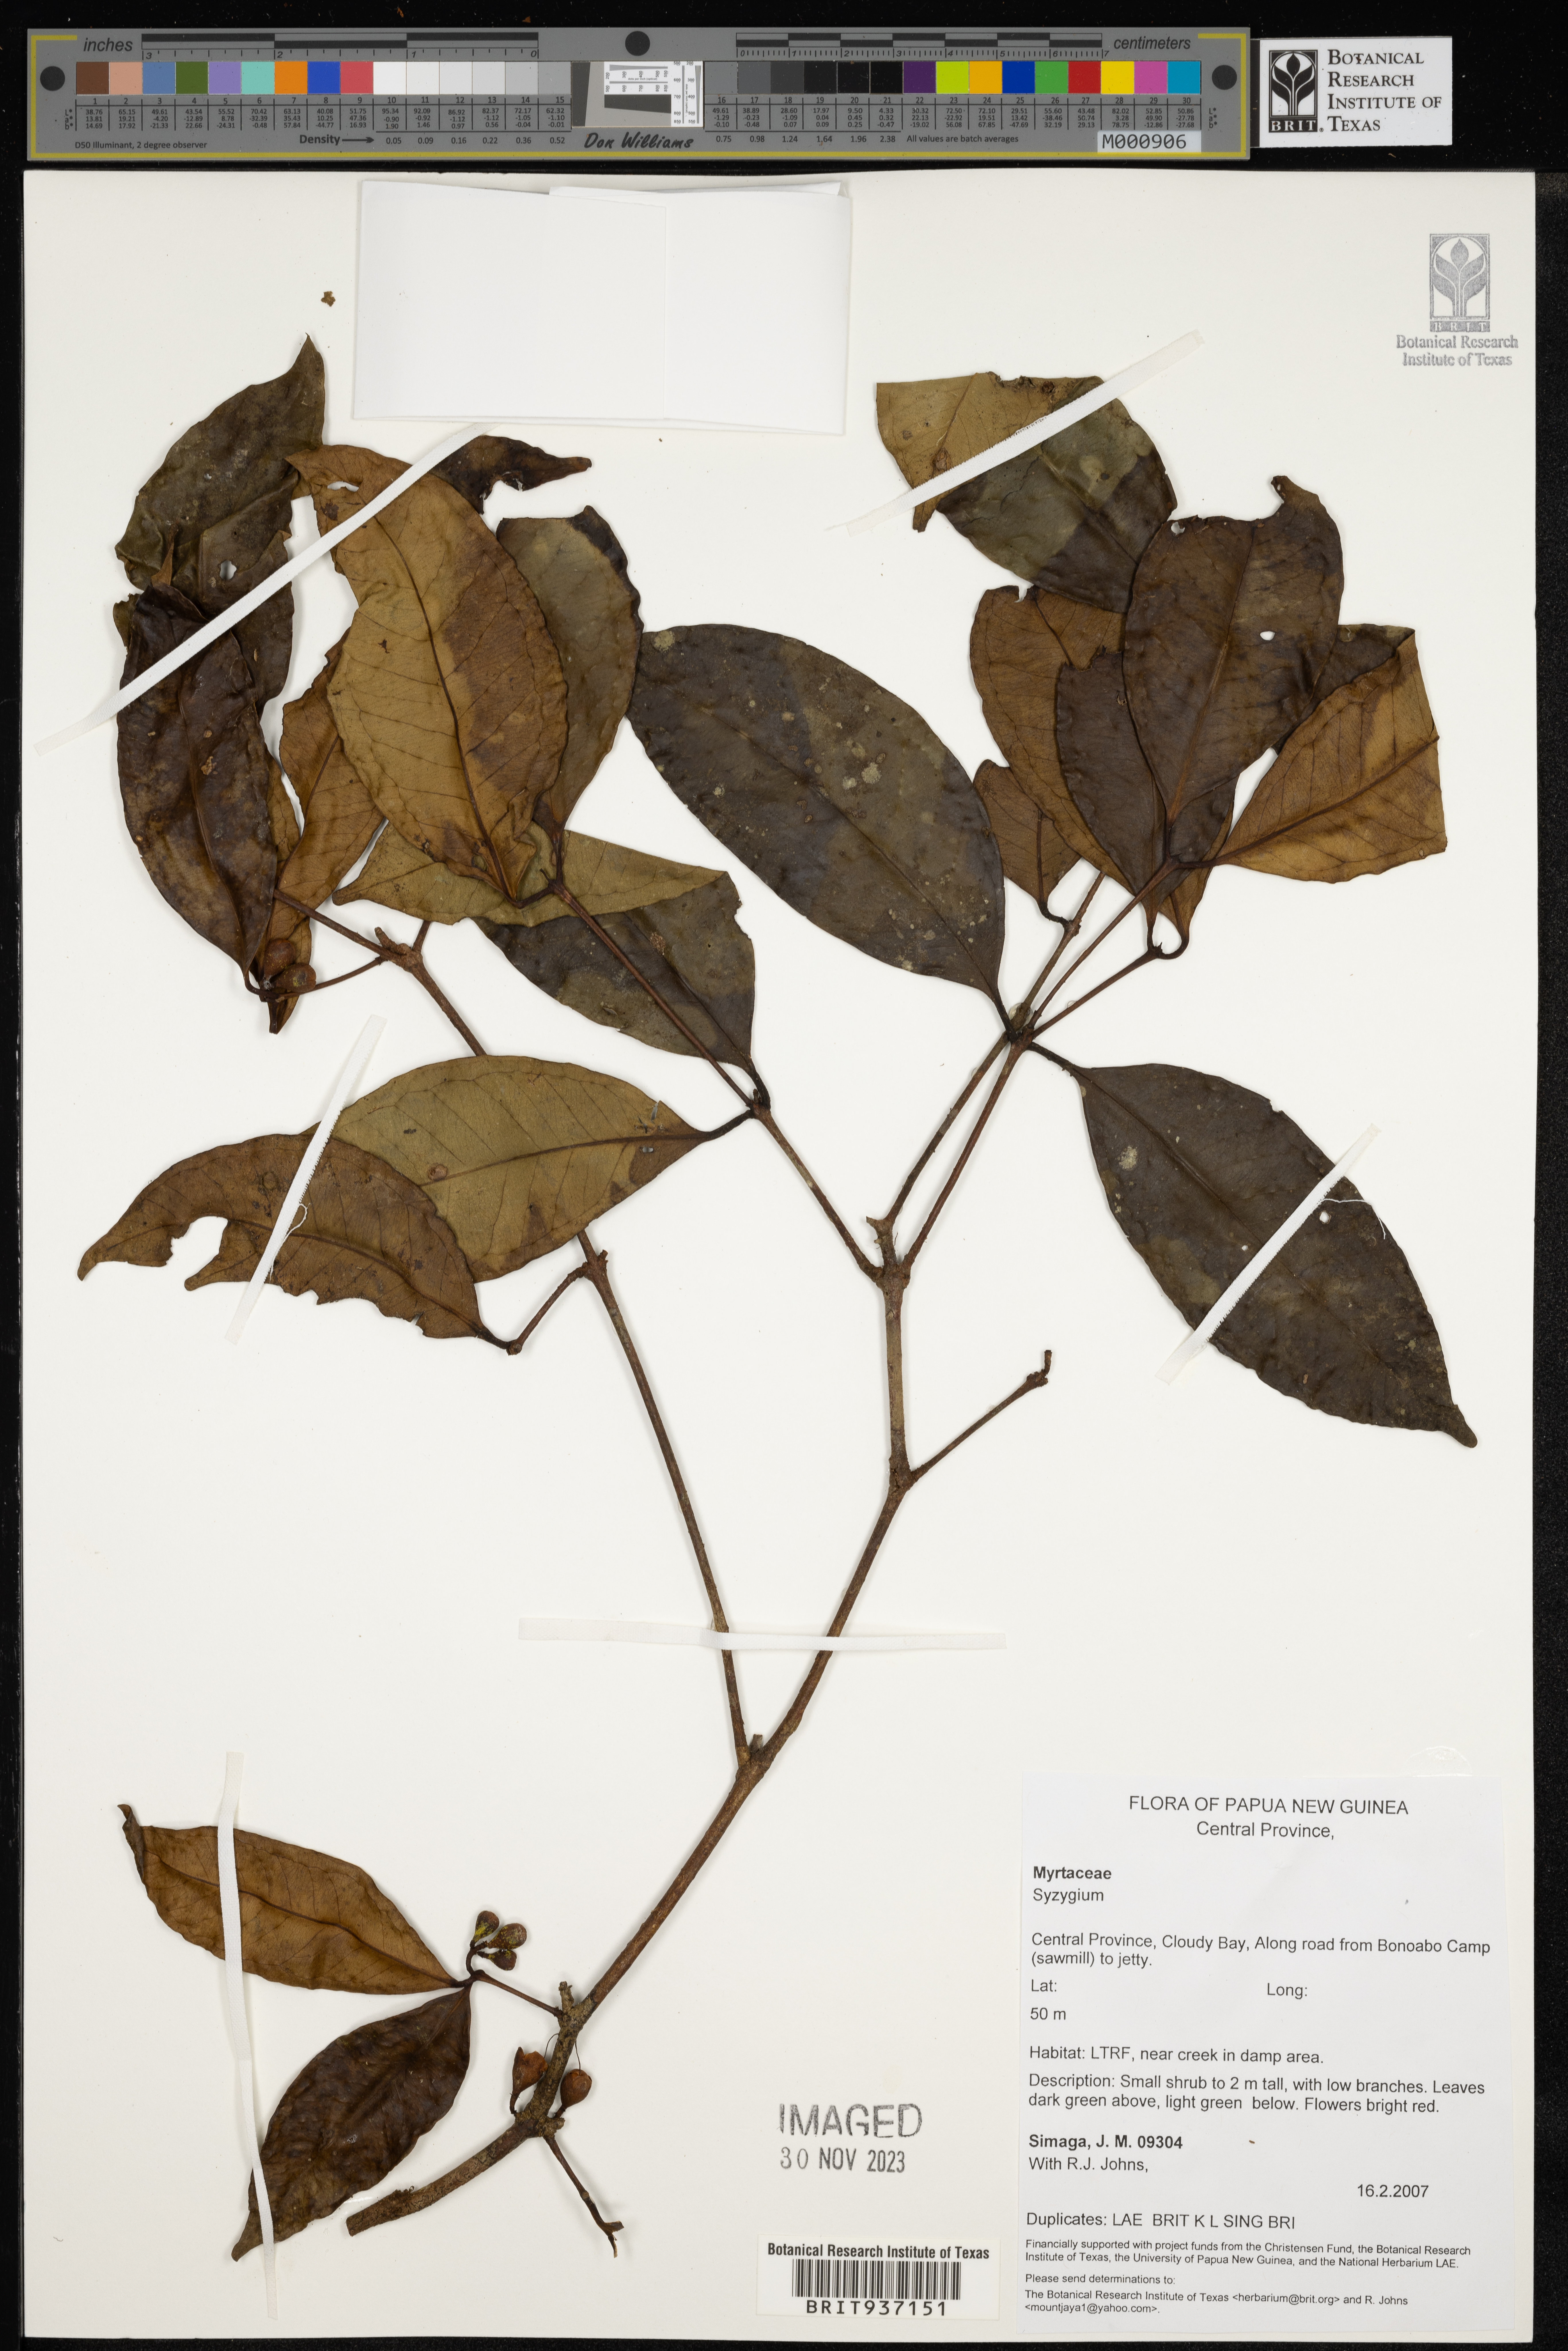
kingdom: Plantae
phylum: Tracheophyta
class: Magnoliopsida
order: Myrtales
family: Myrtaceae
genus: Syzygium
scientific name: Syzygium
